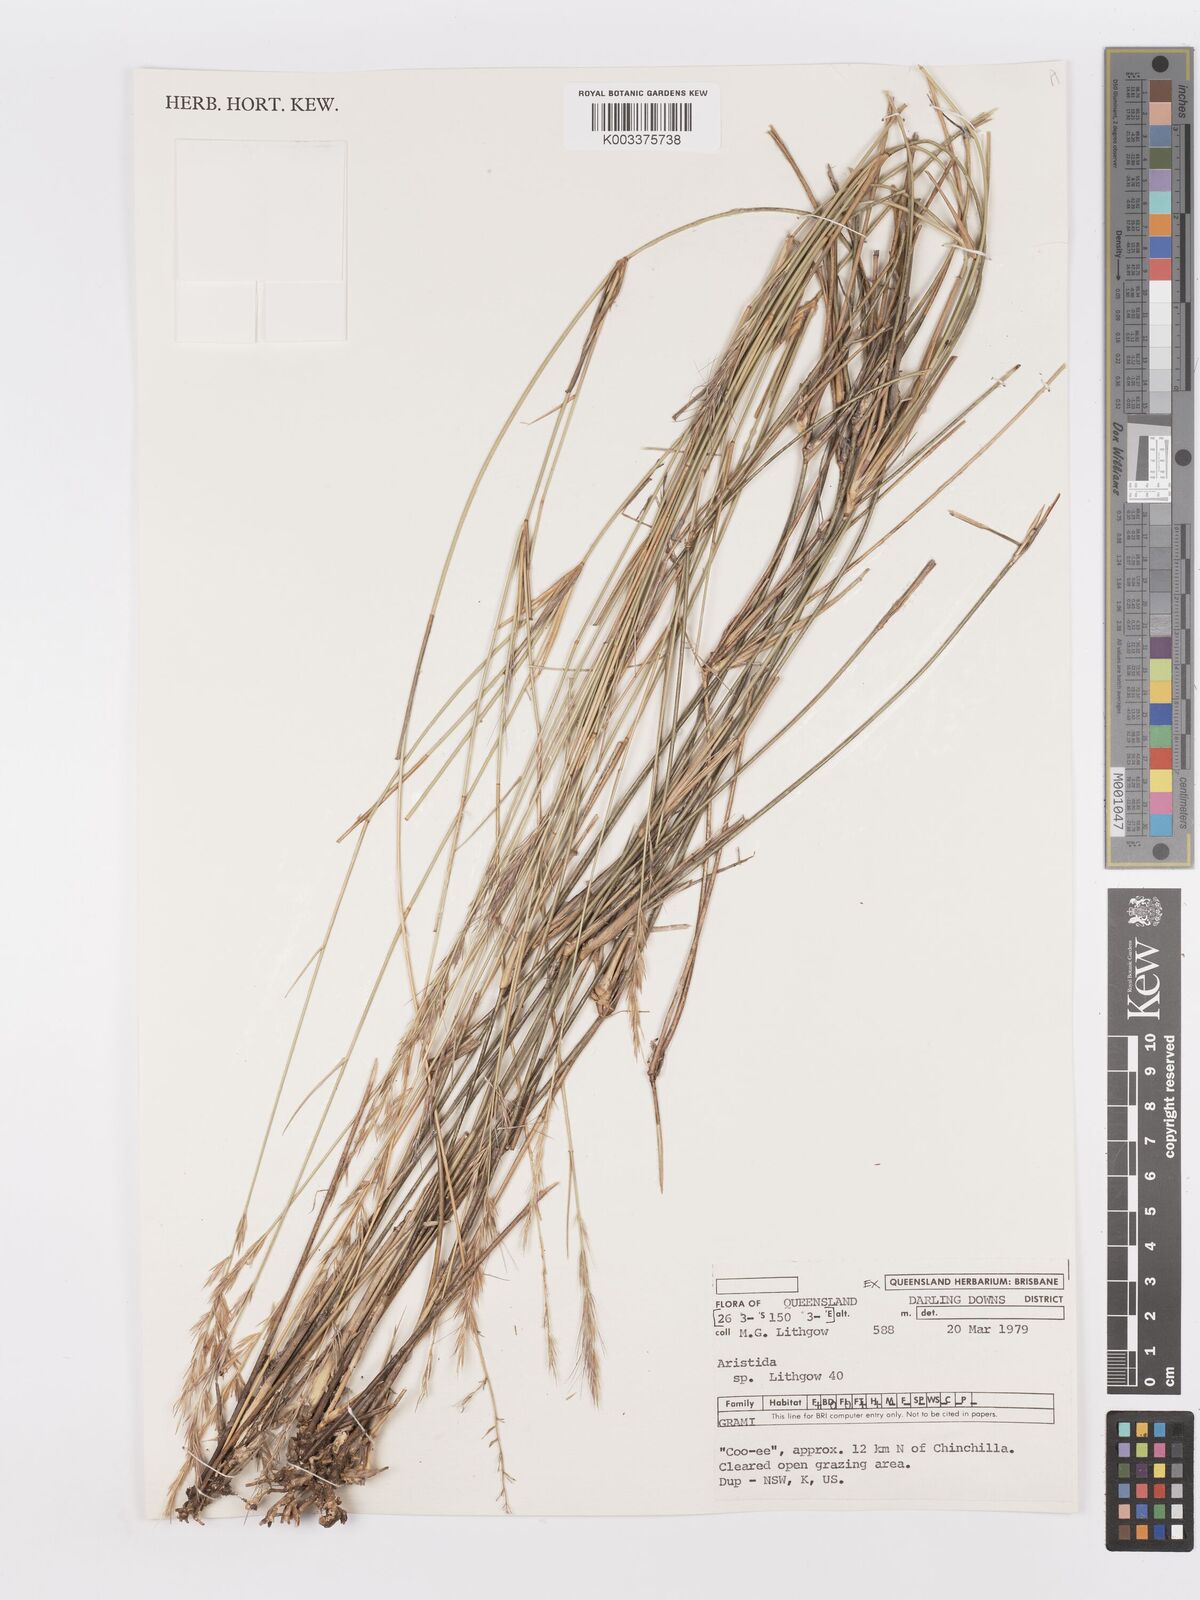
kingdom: Plantae
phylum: Tracheophyta
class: Liliopsida
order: Poales
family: Poaceae
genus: Aristida
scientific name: Aristida
